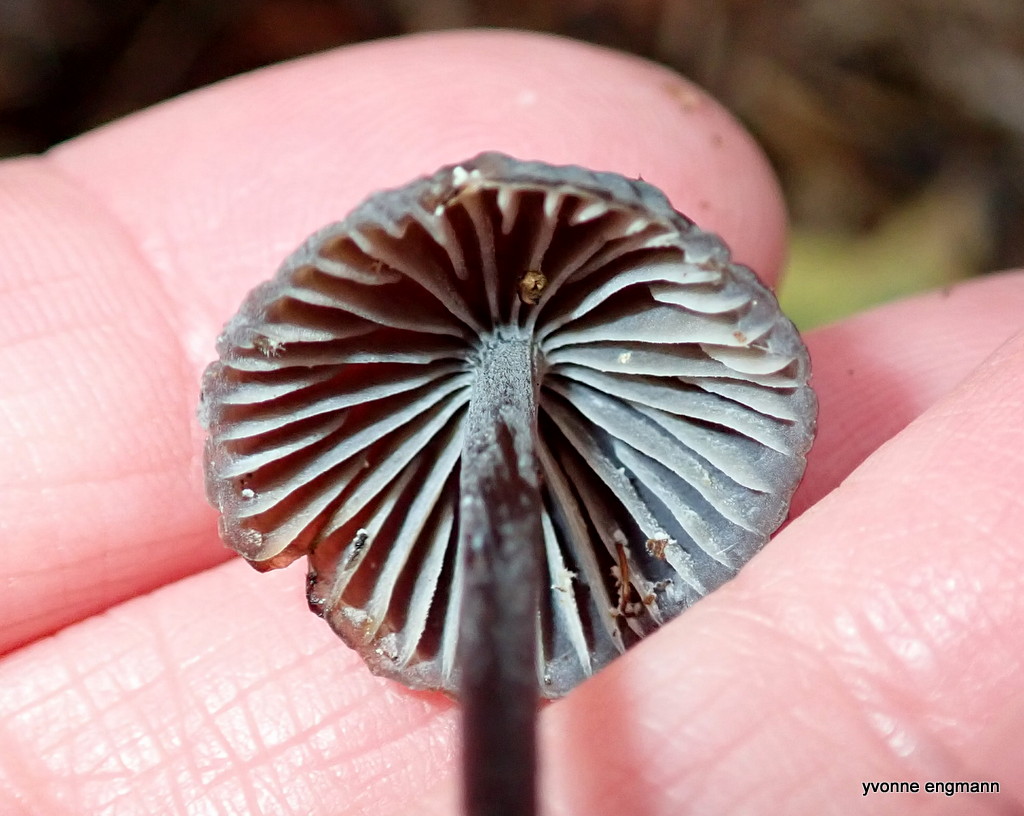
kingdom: Fungi
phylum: Basidiomycota
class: Agaricomycetes
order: Agaricales
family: Mycenaceae
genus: Mycena
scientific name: Mycena galopus
